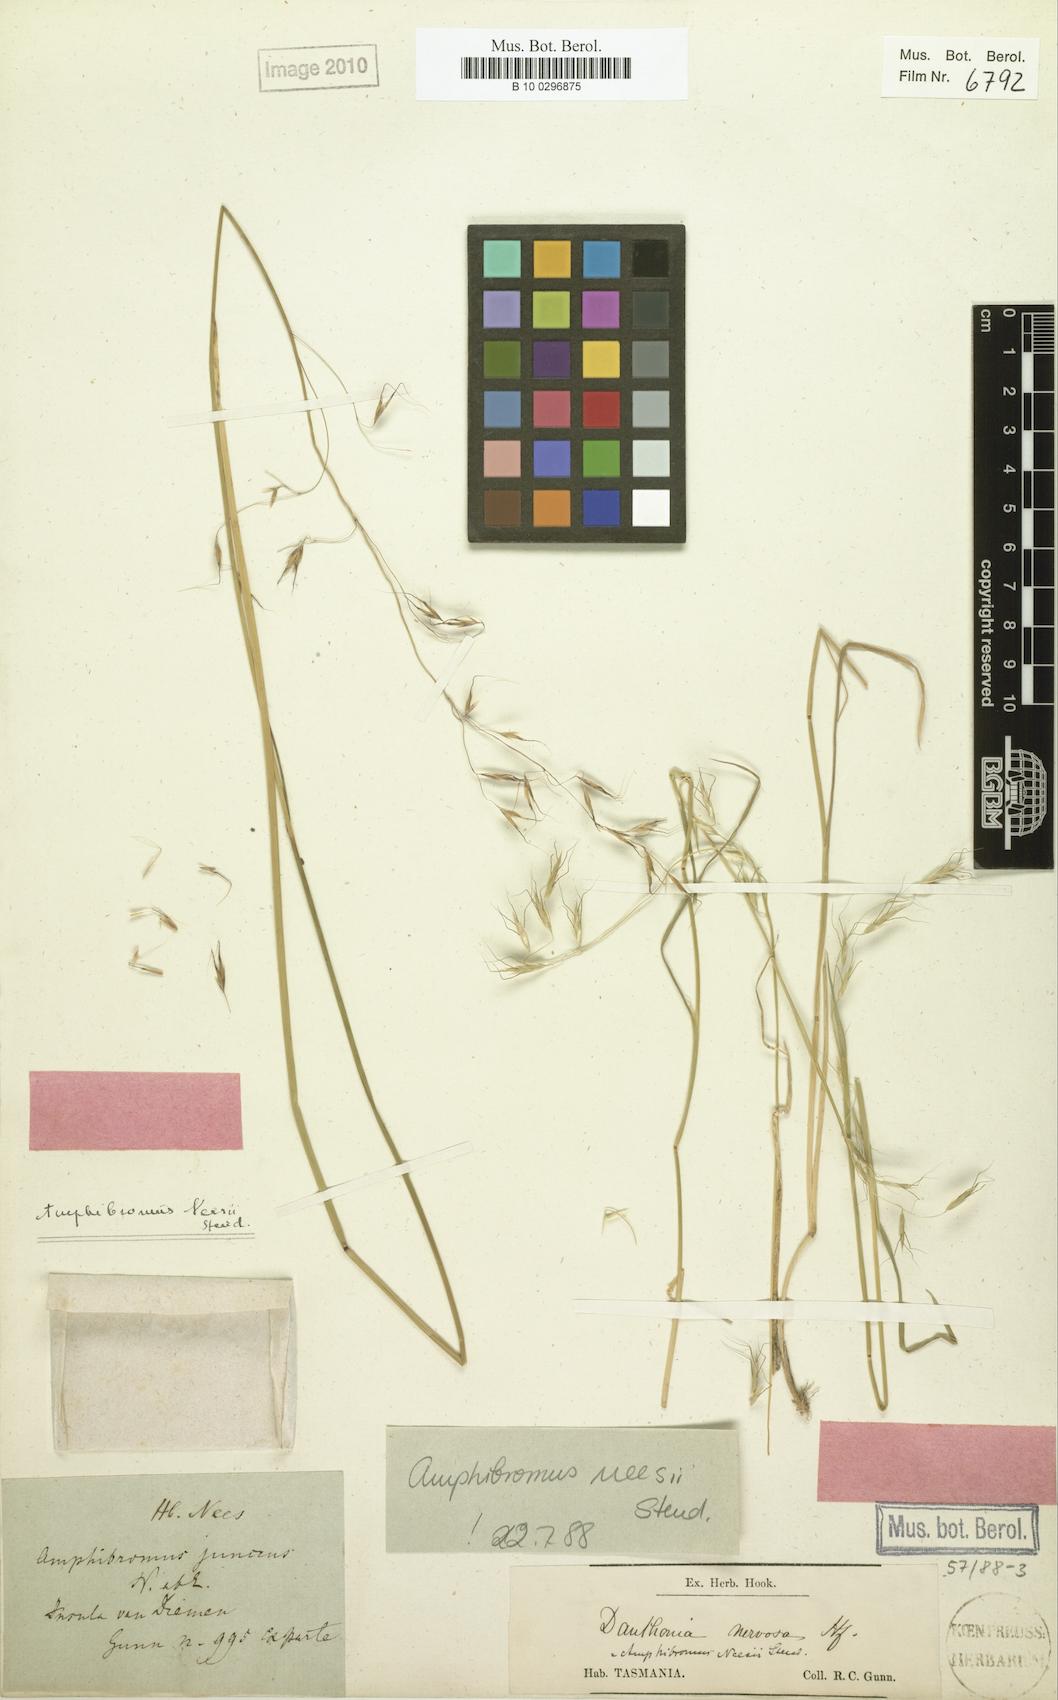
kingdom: Plantae
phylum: Tracheophyta
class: Liliopsida
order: Poales
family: Poaceae
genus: Amphibromus
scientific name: Amphibromus neesii
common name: Australian wallaby grass
